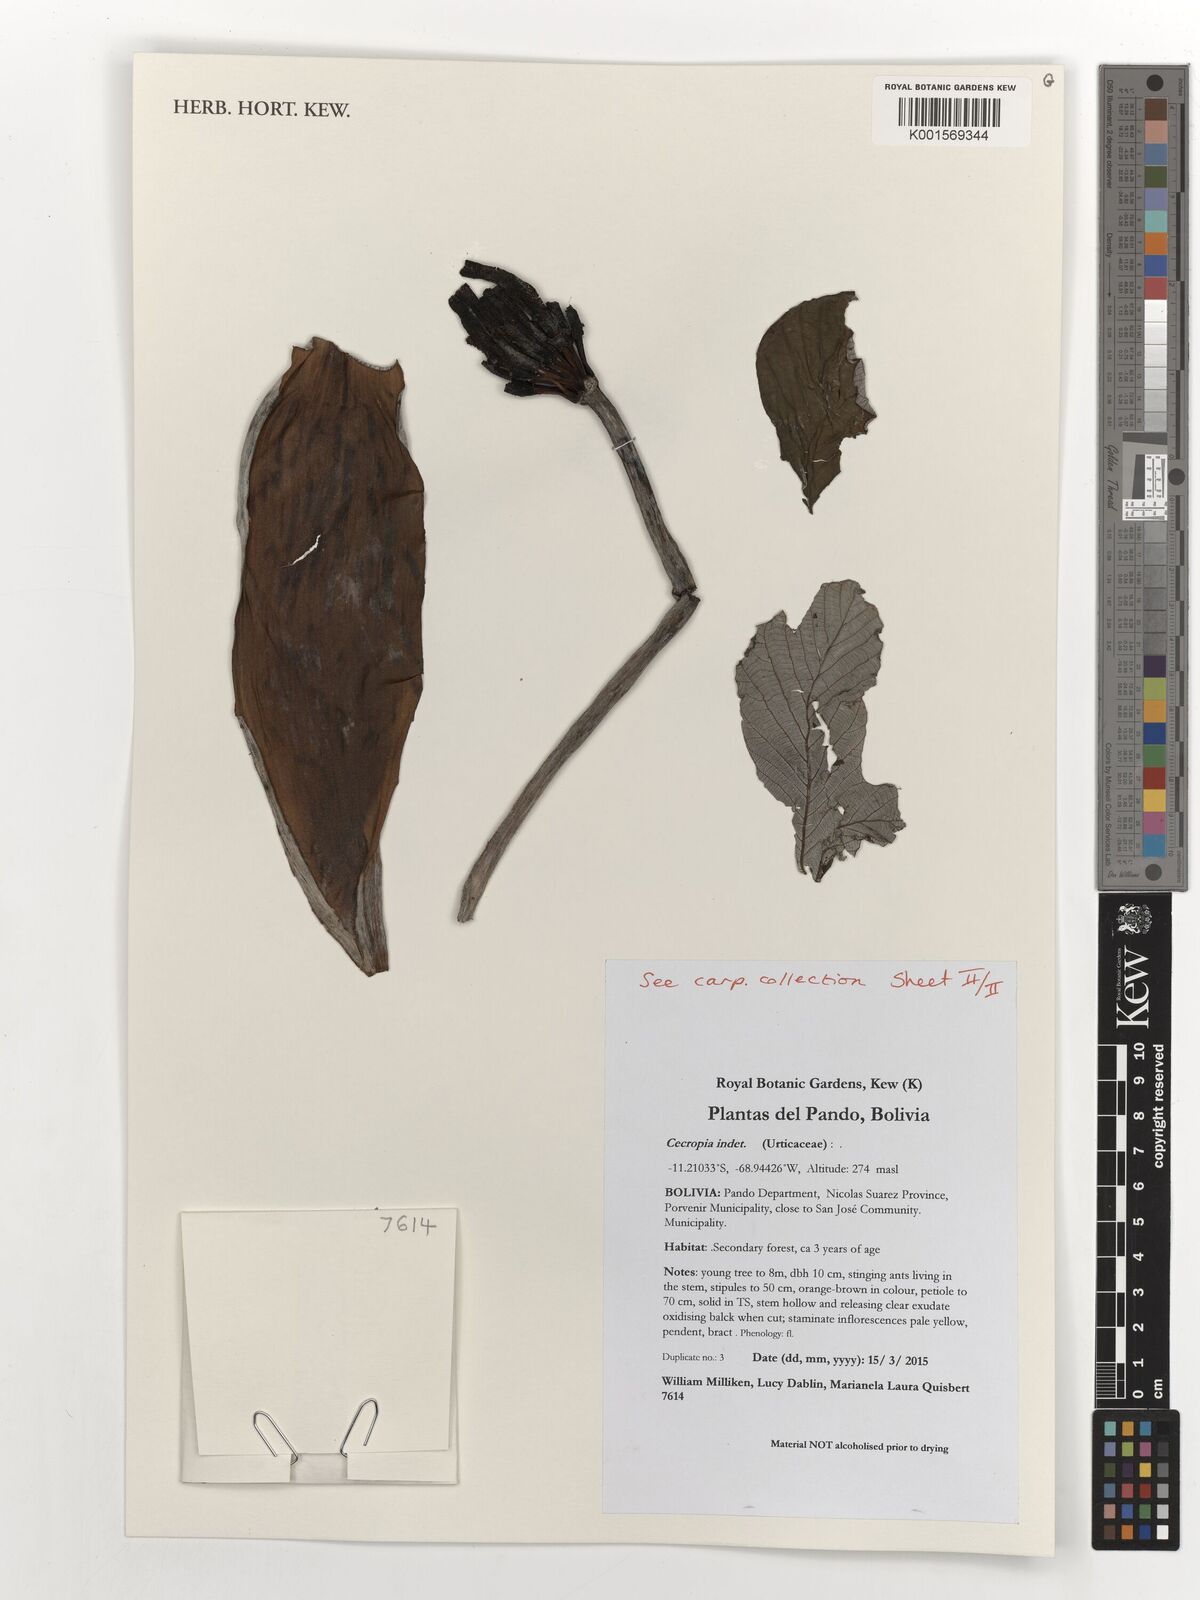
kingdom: Plantae
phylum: Tracheophyta
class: Magnoliopsida
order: Rosales
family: Urticaceae
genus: Cecropia
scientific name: Cecropia
